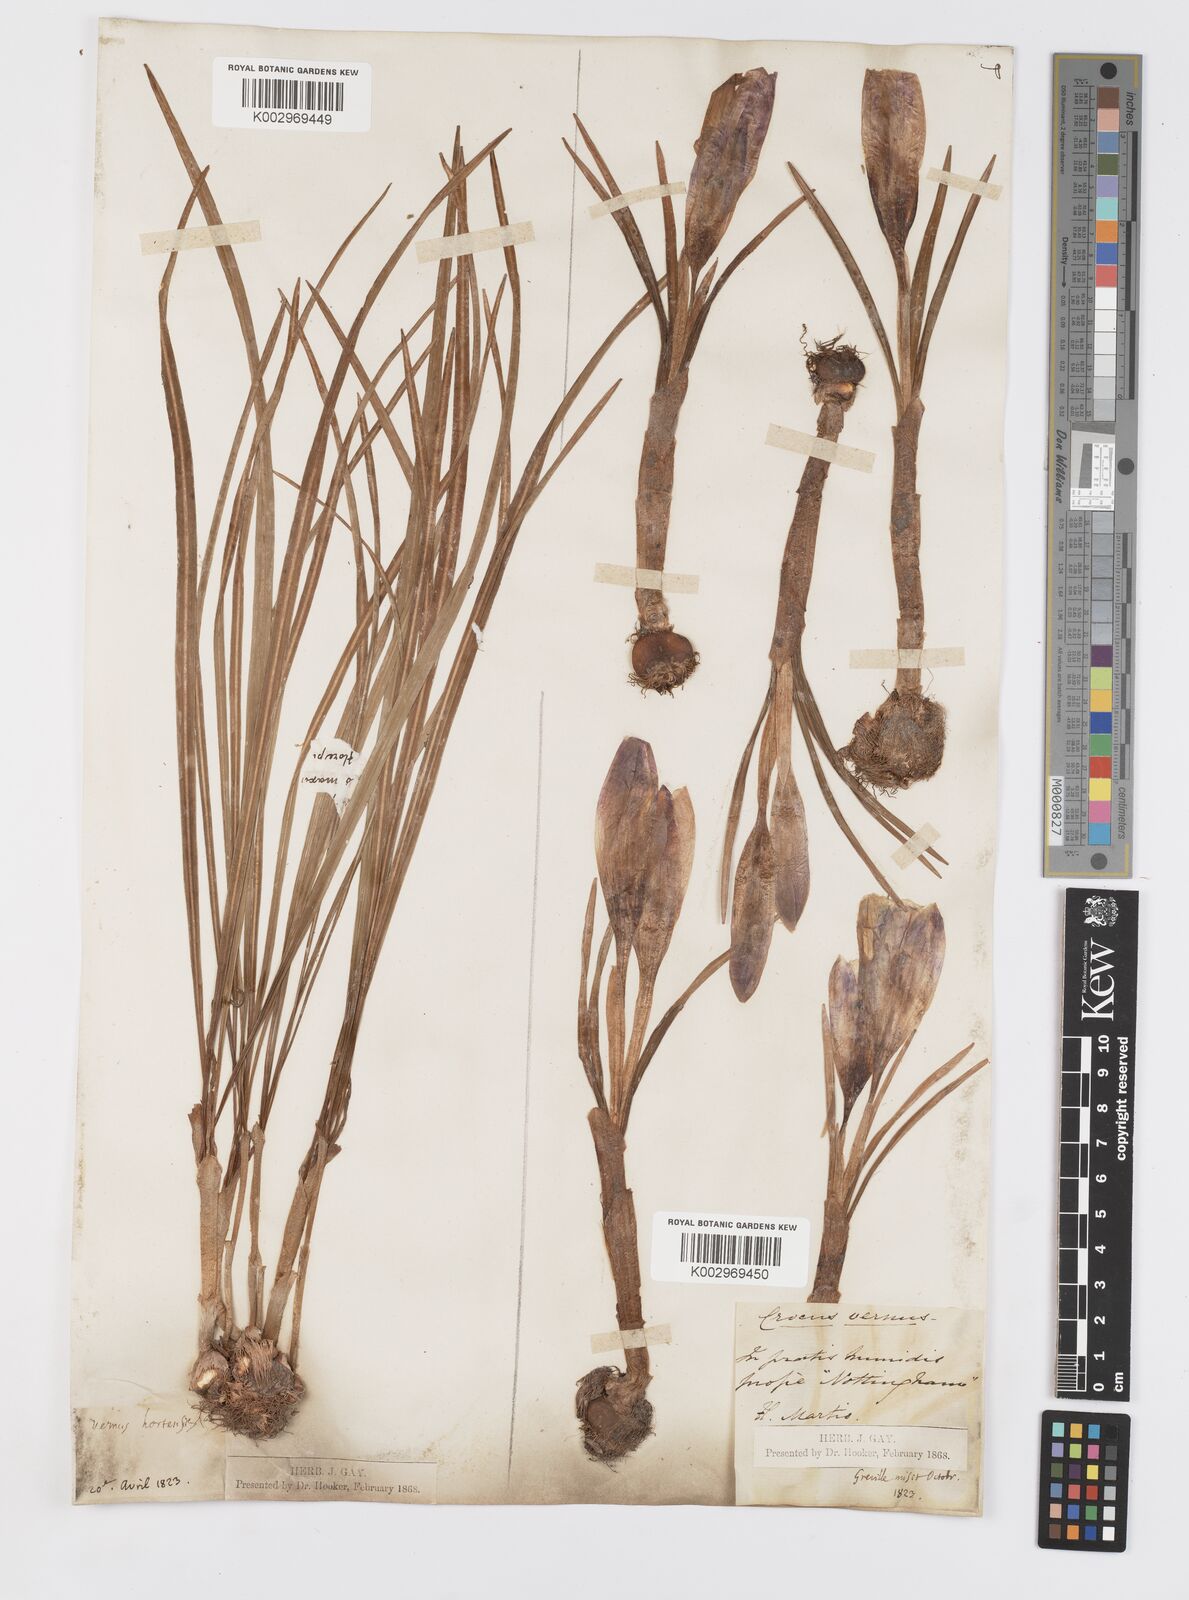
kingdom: Plantae
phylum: Tracheophyta
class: Liliopsida
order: Asparagales
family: Iridaceae
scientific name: Iridaceae
